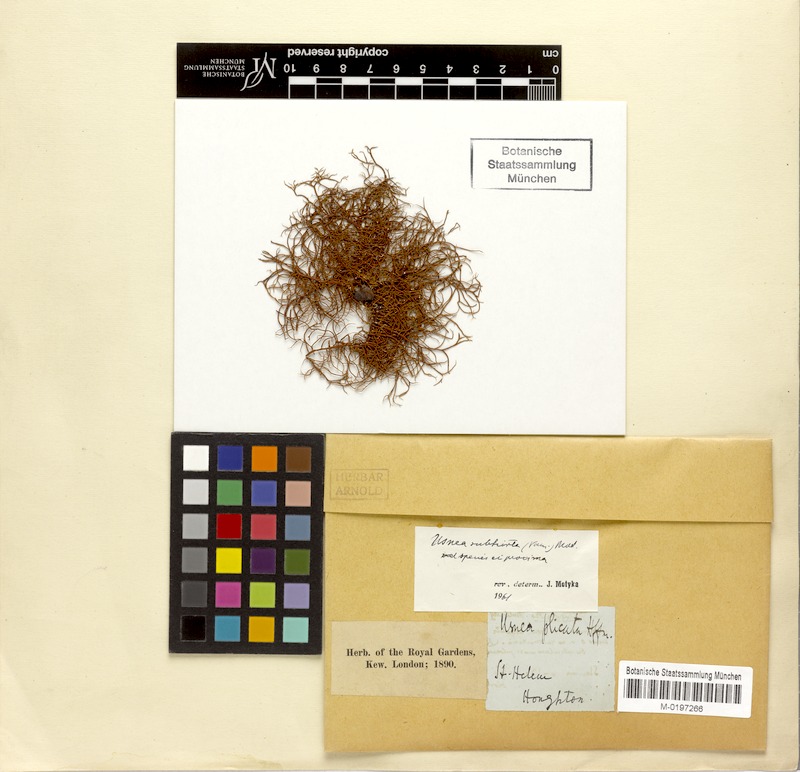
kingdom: Fungi
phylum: Ascomycota
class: Lecanoromycetes
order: Lecanorales
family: Parmeliaceae
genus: Usnea
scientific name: Usnea subhirta
